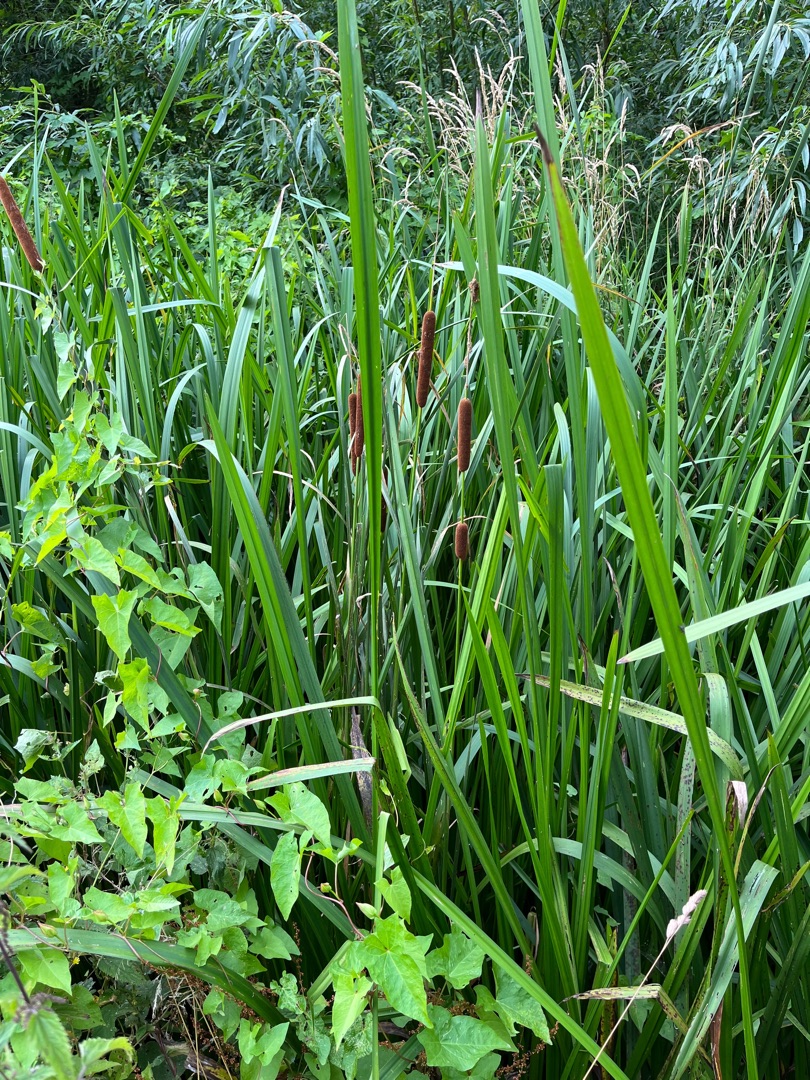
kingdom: Plantae
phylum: Tracheophyta
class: Liliopsida
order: Poales
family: Typhaceae
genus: Typha
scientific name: Typha angustifolia
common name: Smalbladet dunhammer
